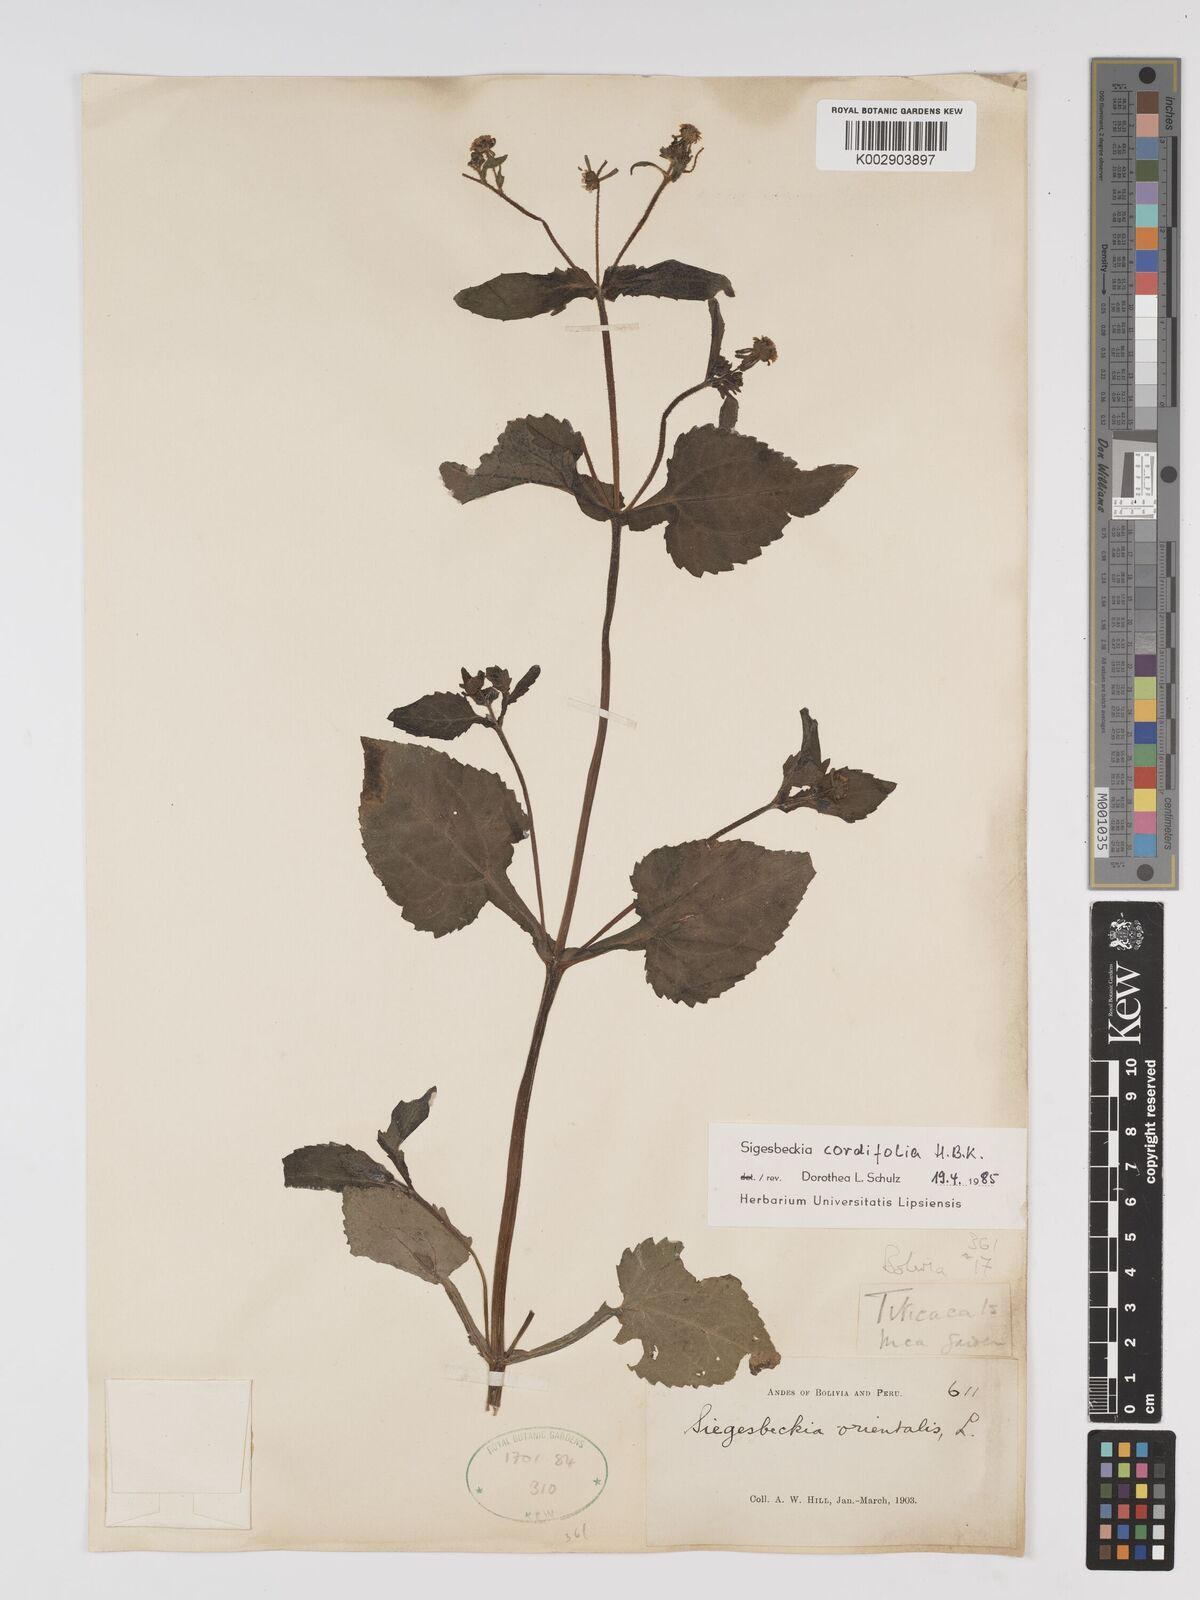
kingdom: Plantae
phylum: Tracheophyta
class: Magnoliopsida
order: Asterales
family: Asteraceae
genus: Sigesbeckia
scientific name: Sigesbeckia jorullensis
